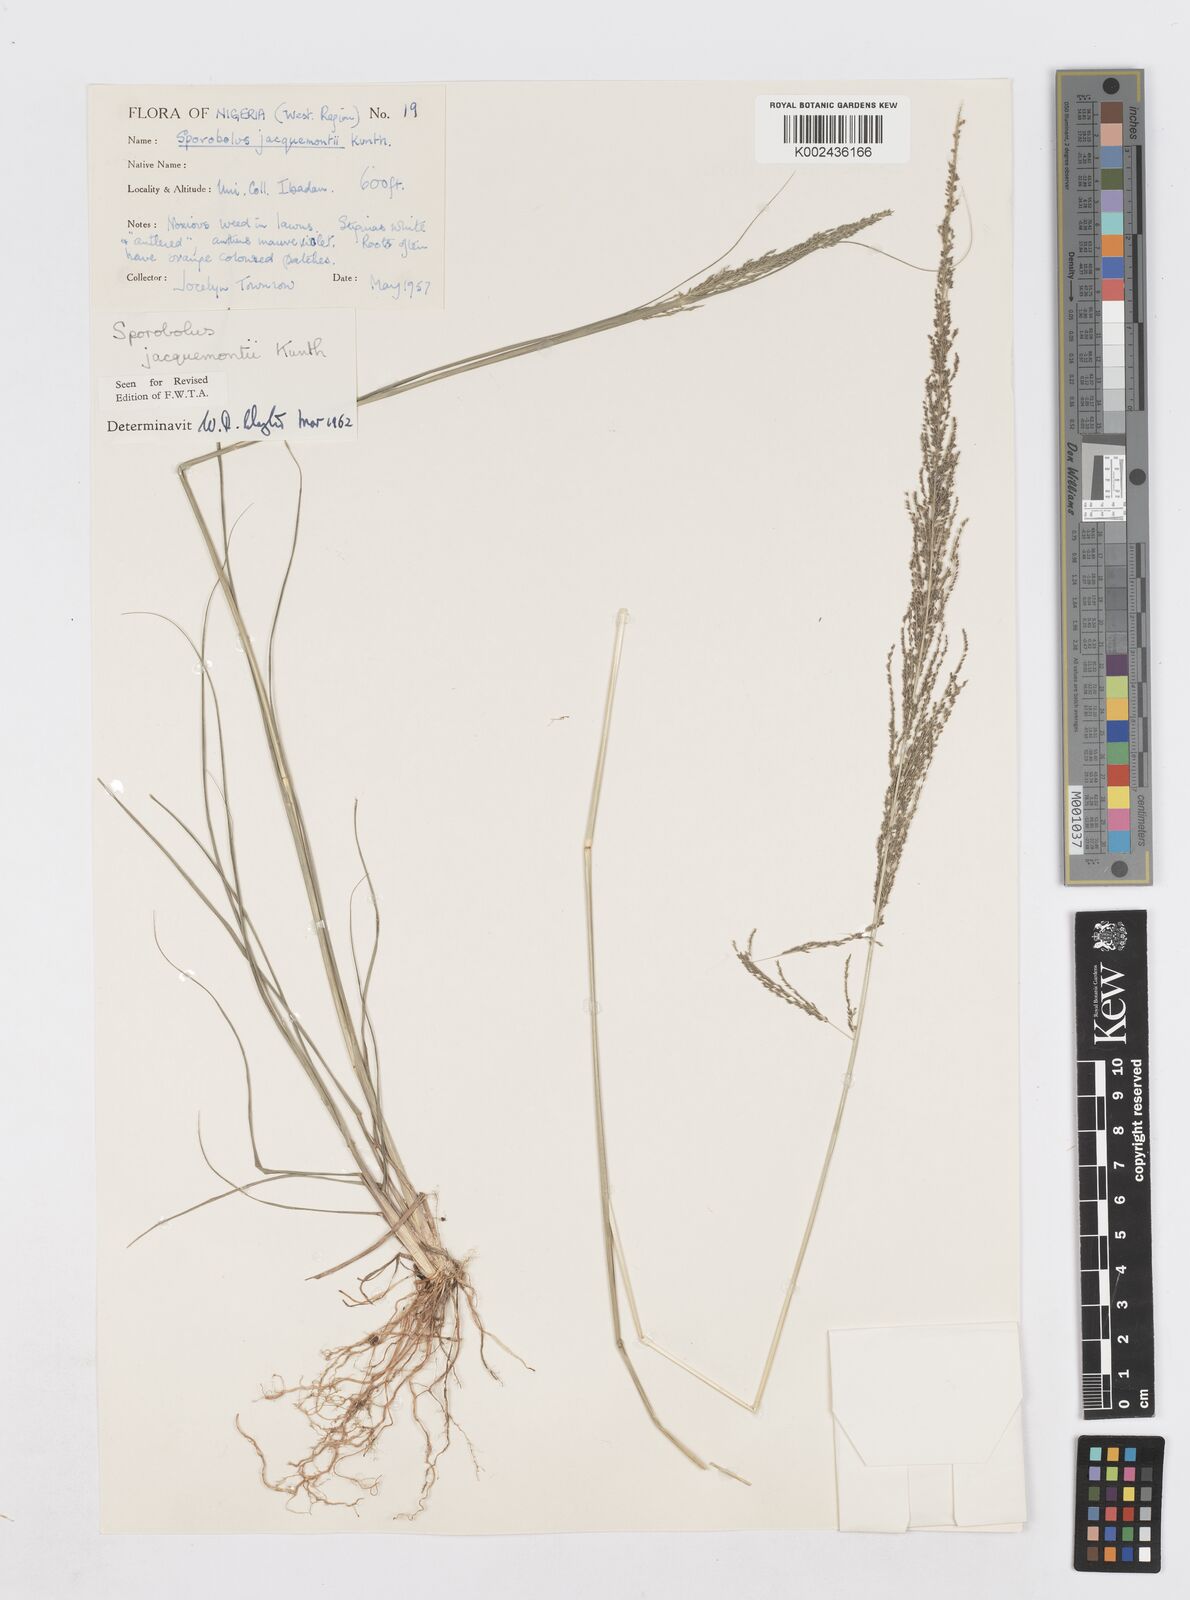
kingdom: Plantae
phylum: Tracheophyta
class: Liliopsida
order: Poales
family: Poaceae
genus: Sporobolus
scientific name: Sporobolus pyramidalis
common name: West indian dropseed
